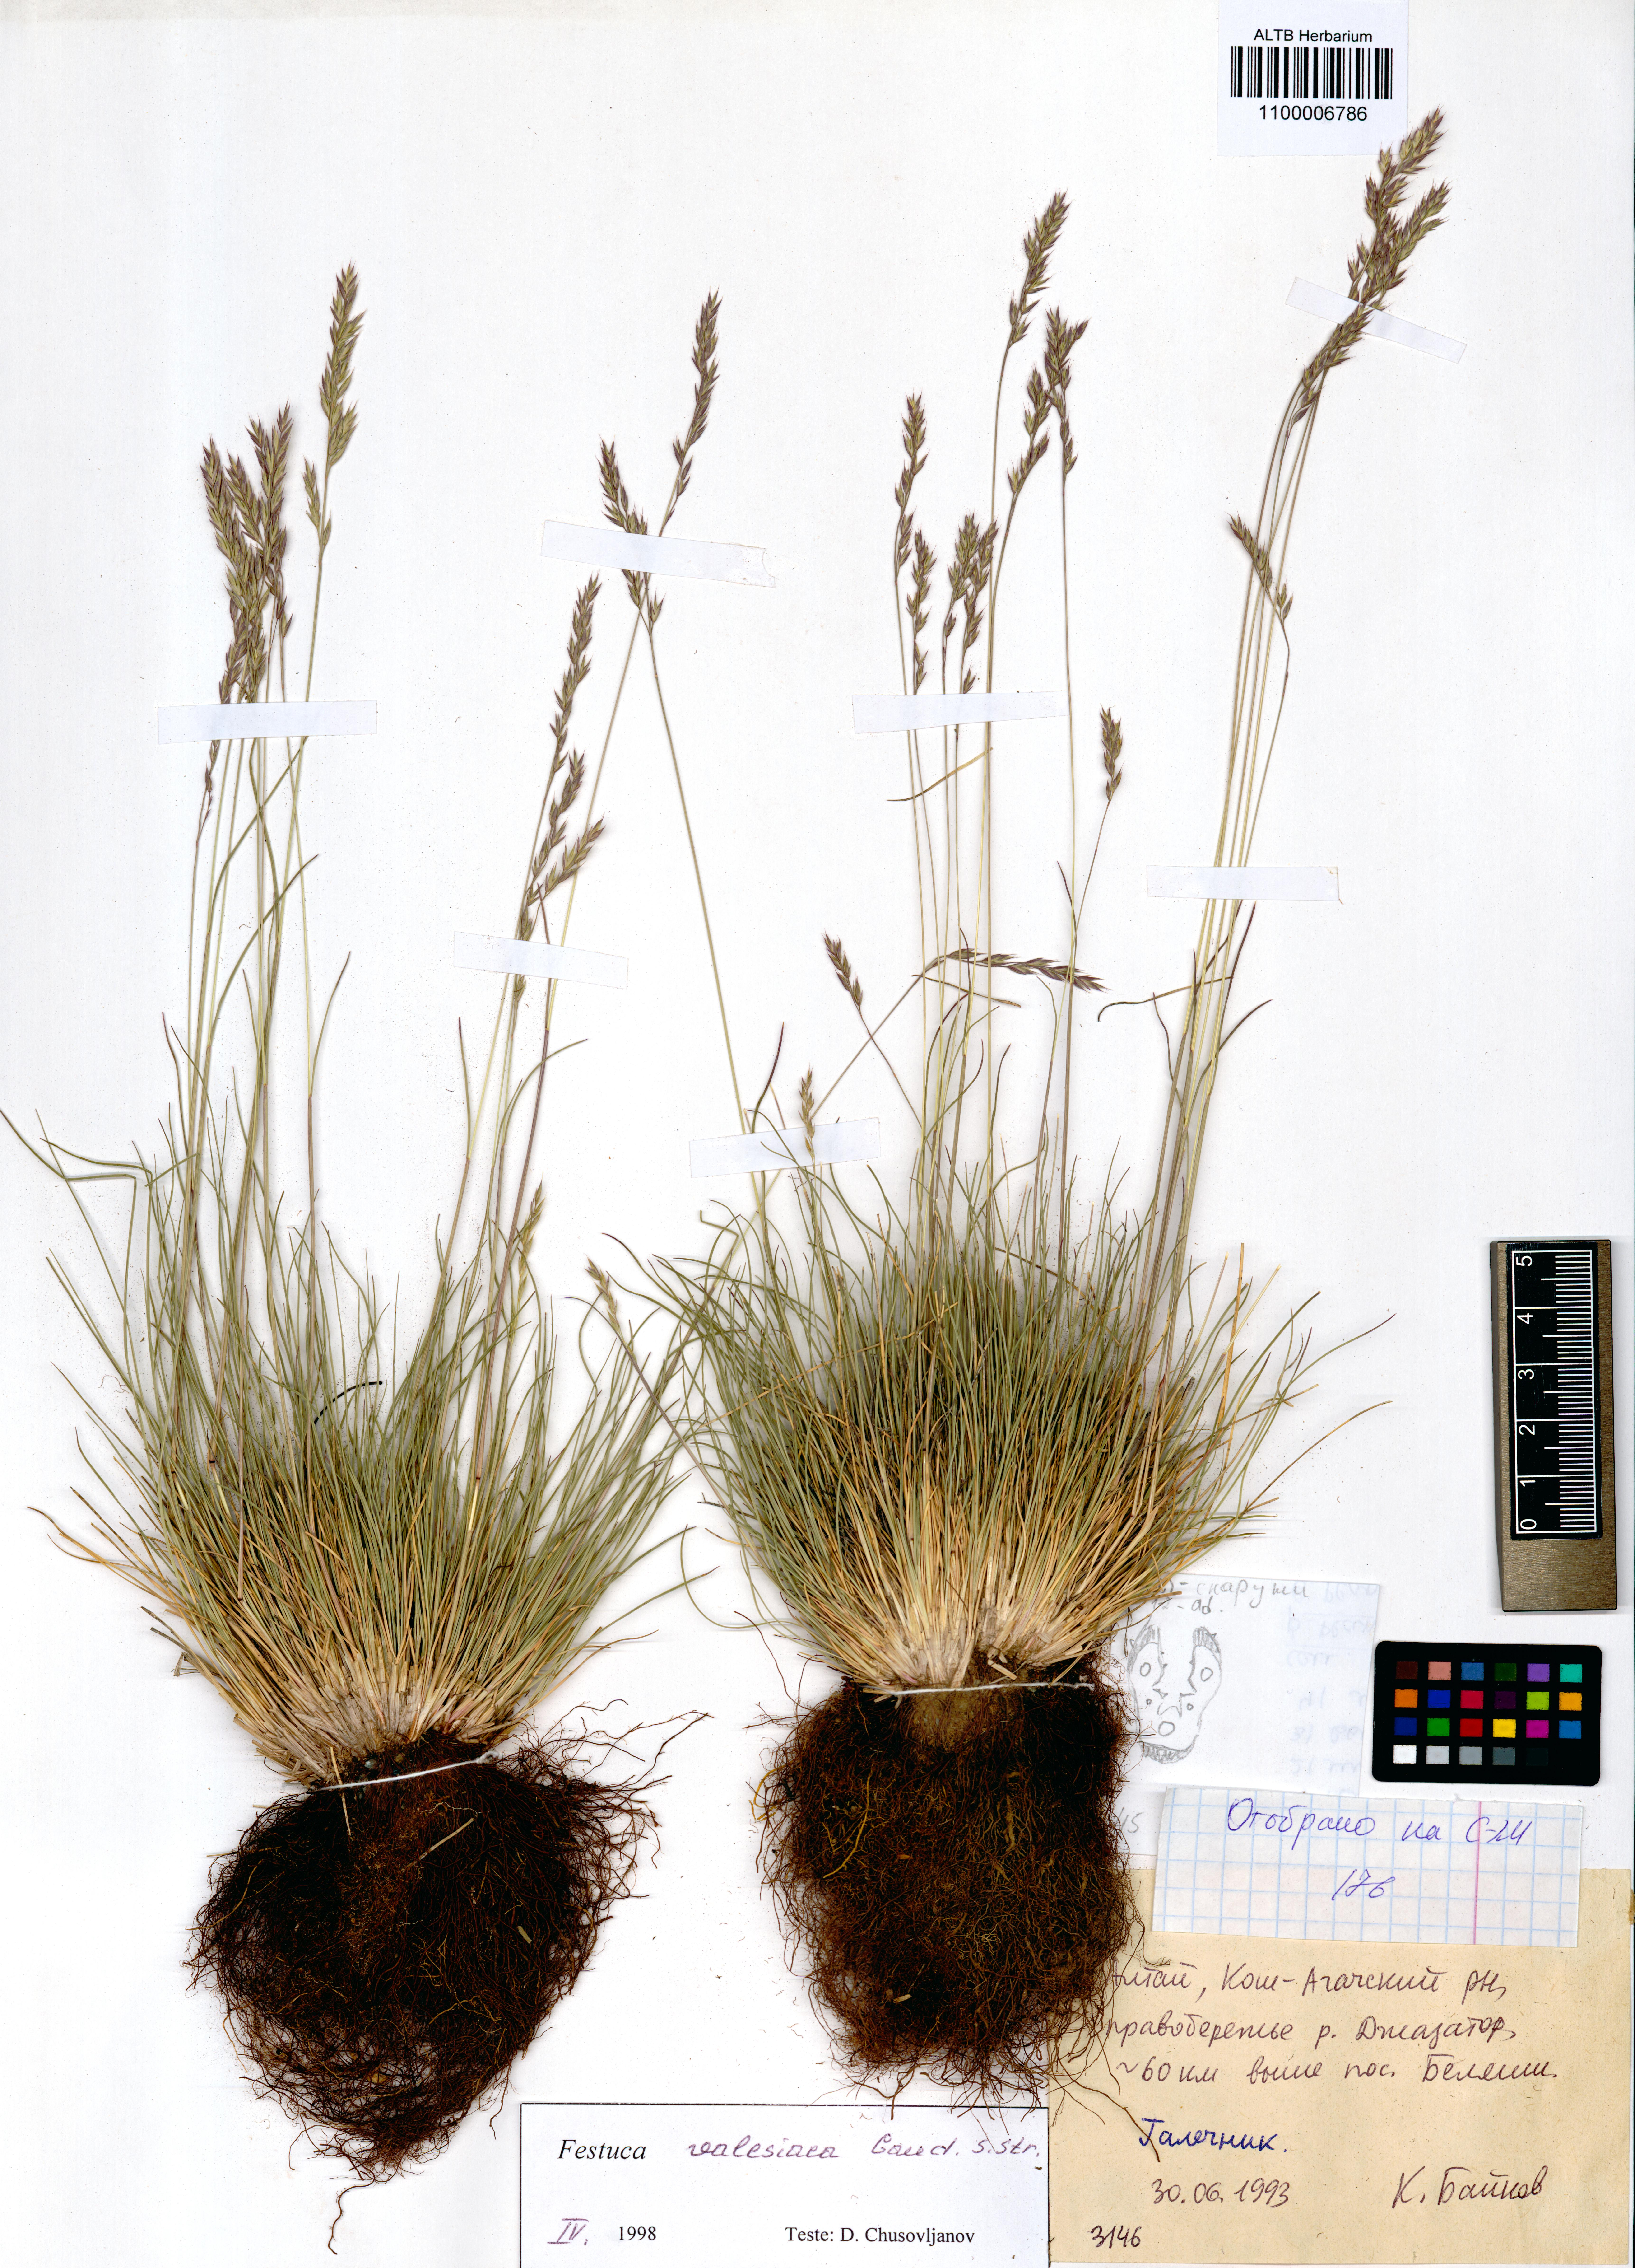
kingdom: Plantae
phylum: Tracheophyta
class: Liliopsida
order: Poales
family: Poaceae
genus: Festuca
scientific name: Festuca valesiaca
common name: Volga fescue
